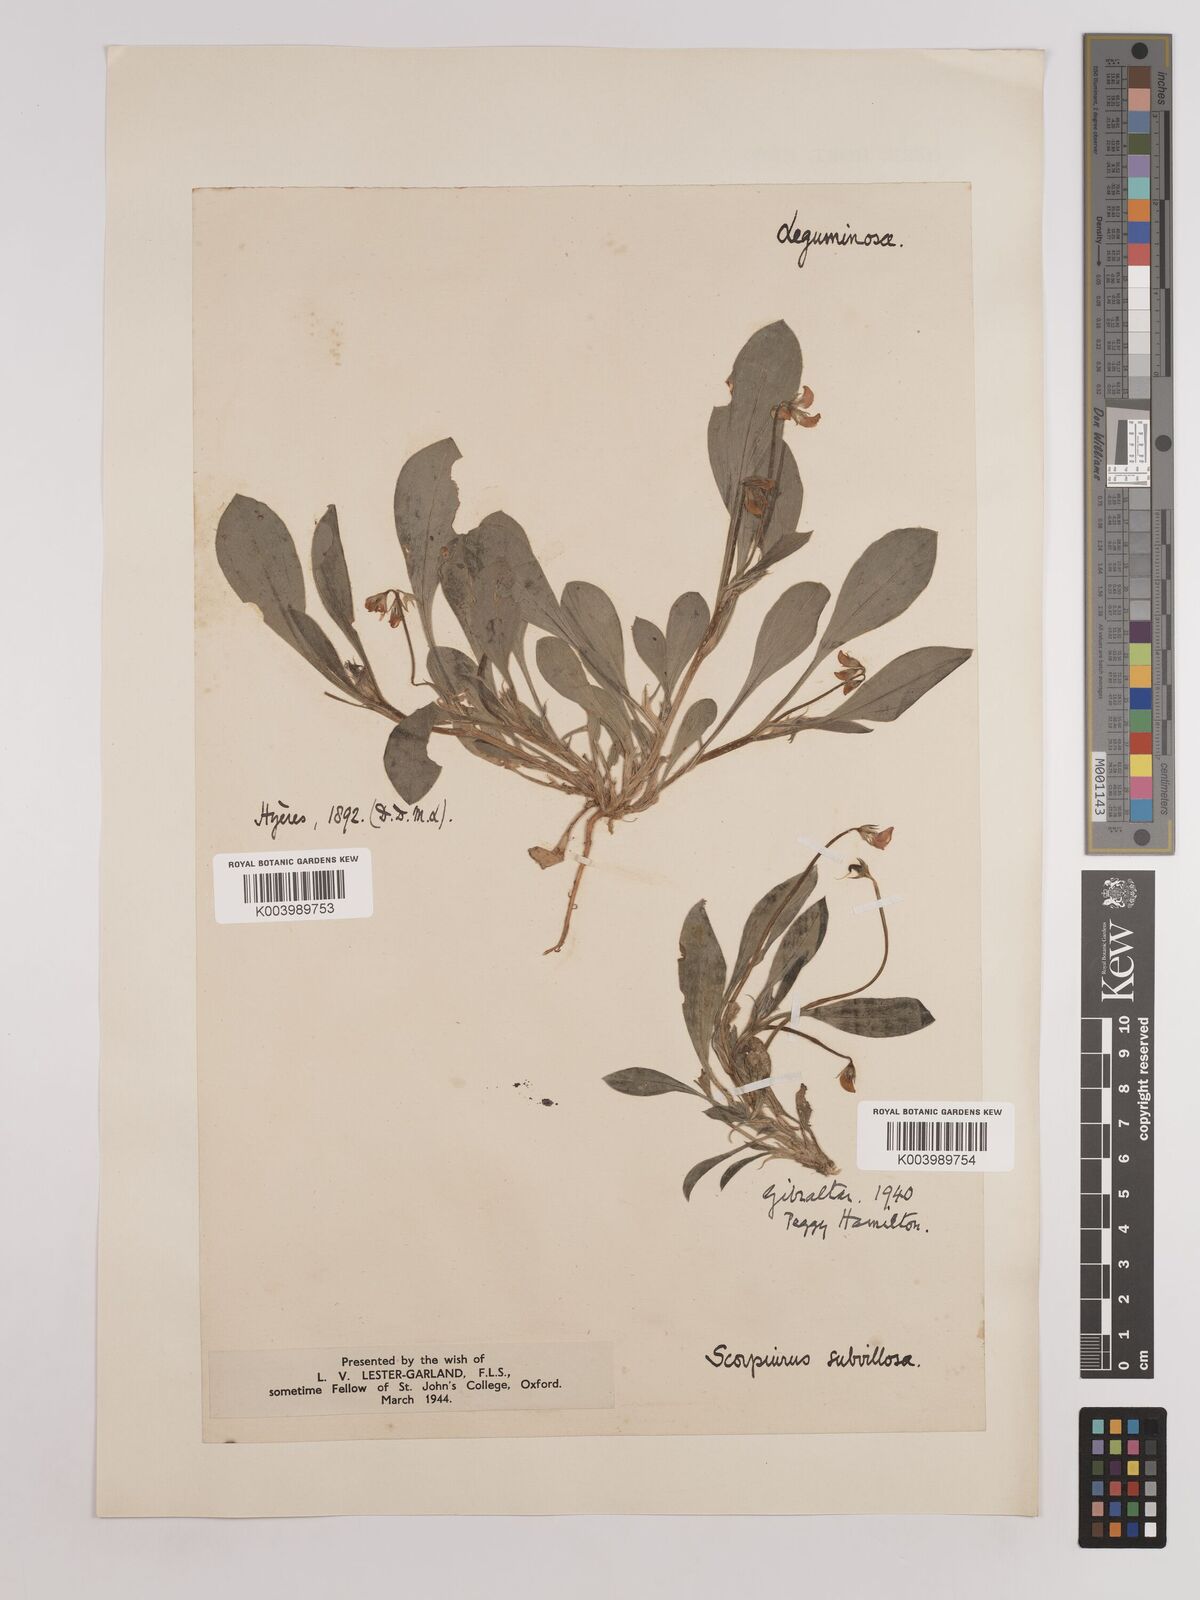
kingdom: Plantae
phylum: Tracheophyta
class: Magnoliopsida
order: Fabales
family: Fabaceae
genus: Scorpiurus
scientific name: Scorpiurus muricatus
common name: Caterpillar-plant
